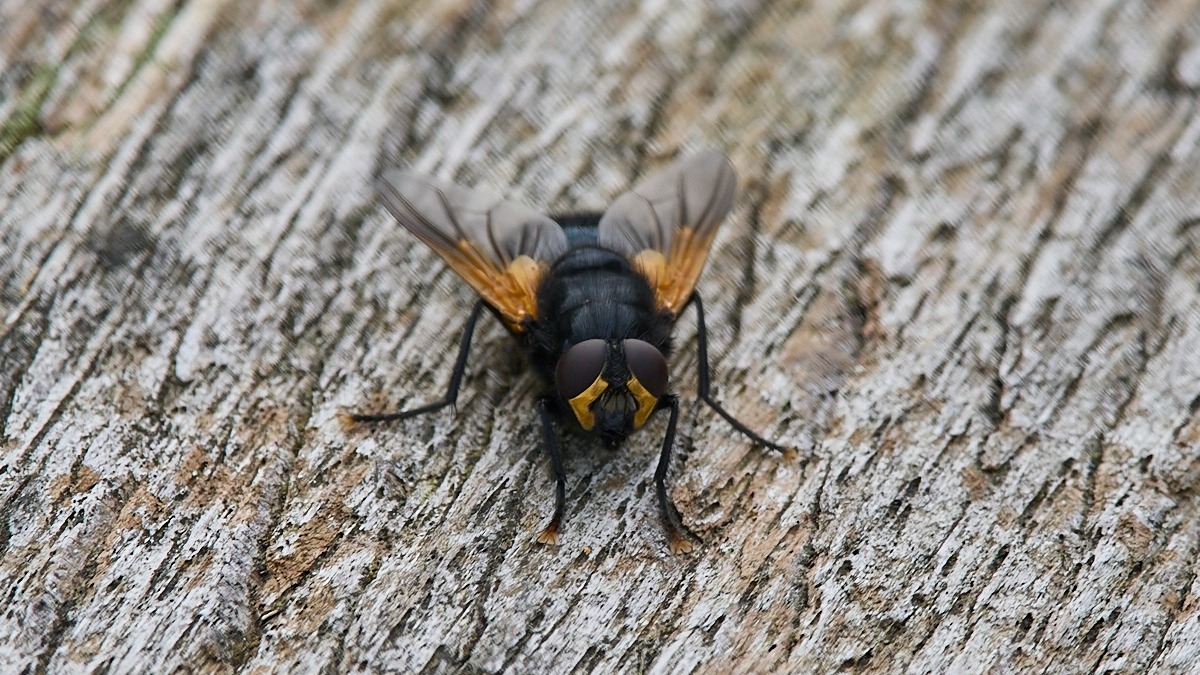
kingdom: Animalia
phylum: Arthropoda
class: Insecta
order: Diptera
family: Muscidae
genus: Mesembrina
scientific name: Mesembrina meridiana
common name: Gulvinget flue
